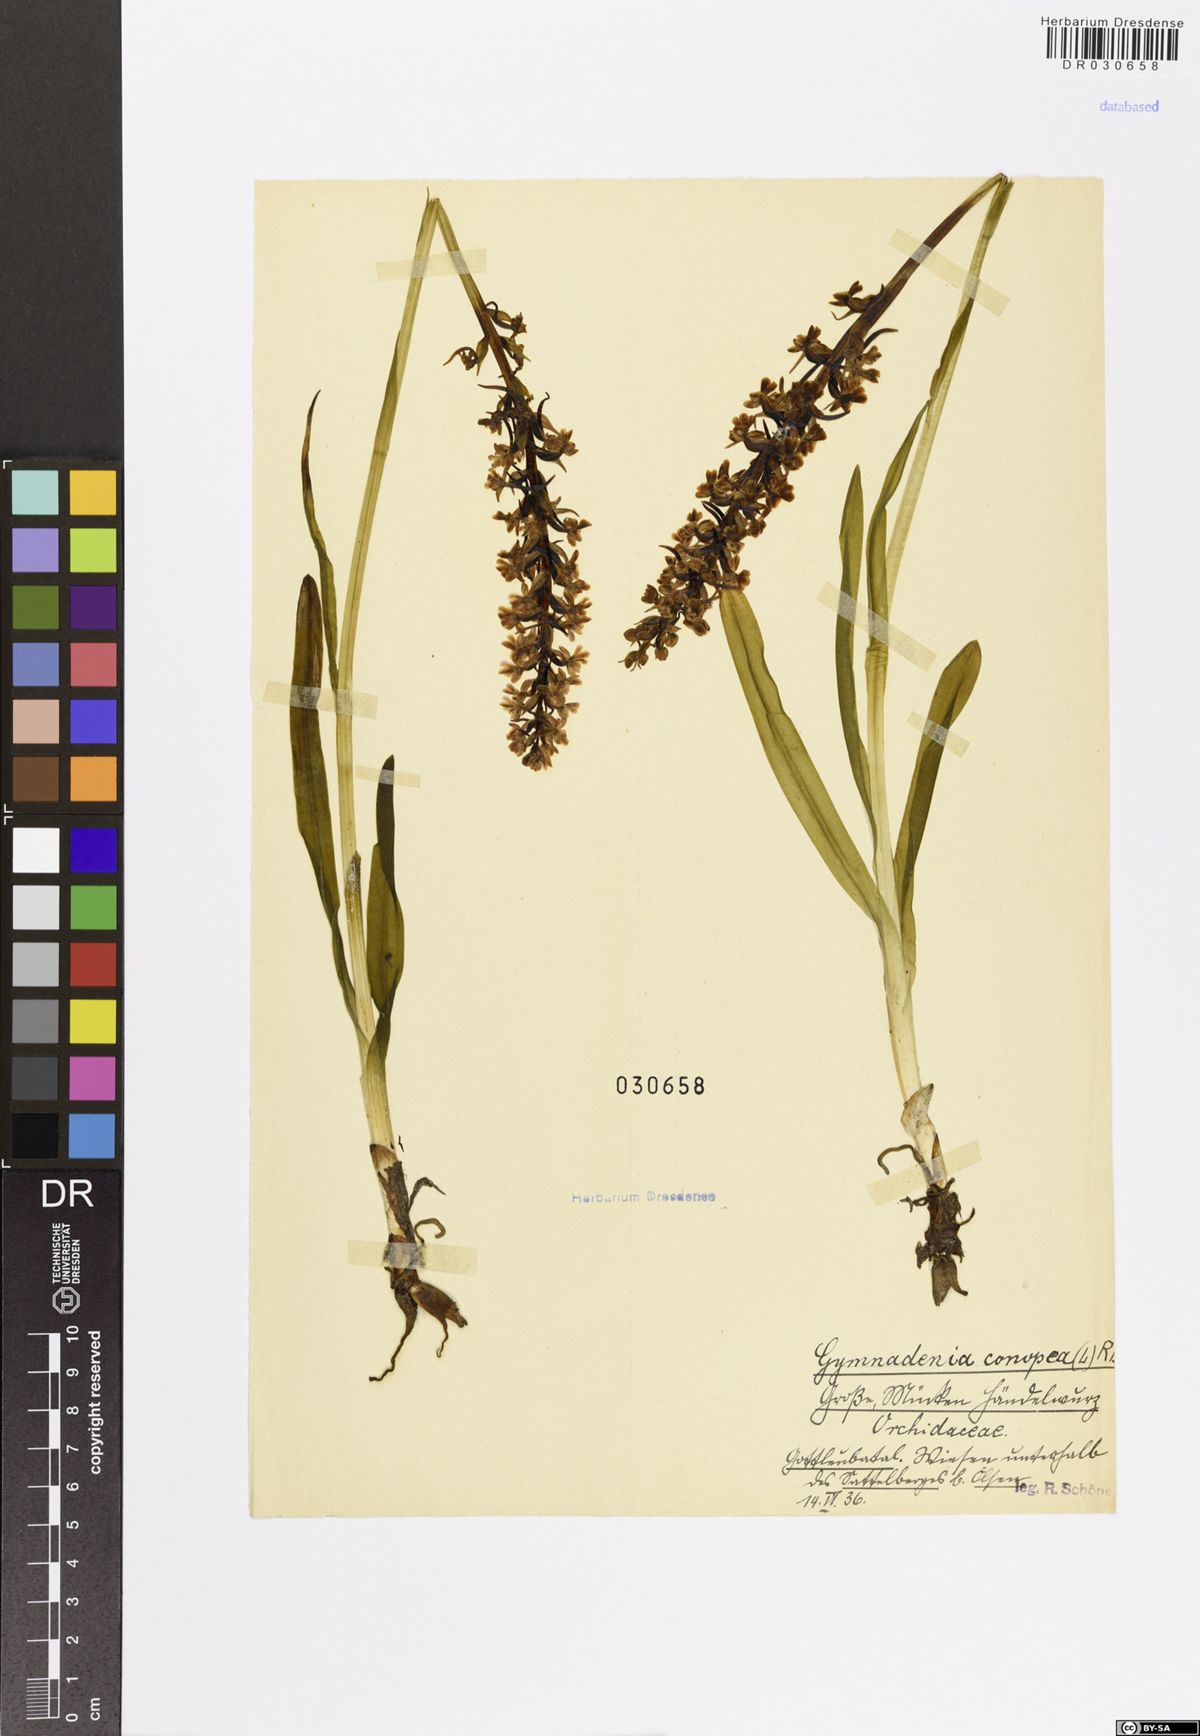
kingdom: Plantae
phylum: Tracheophyta
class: Liliopsida
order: Asparagales
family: Orchidaceae
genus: Gymnadenia
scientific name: Gymnadenia conopsea
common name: Fragrant orchid
